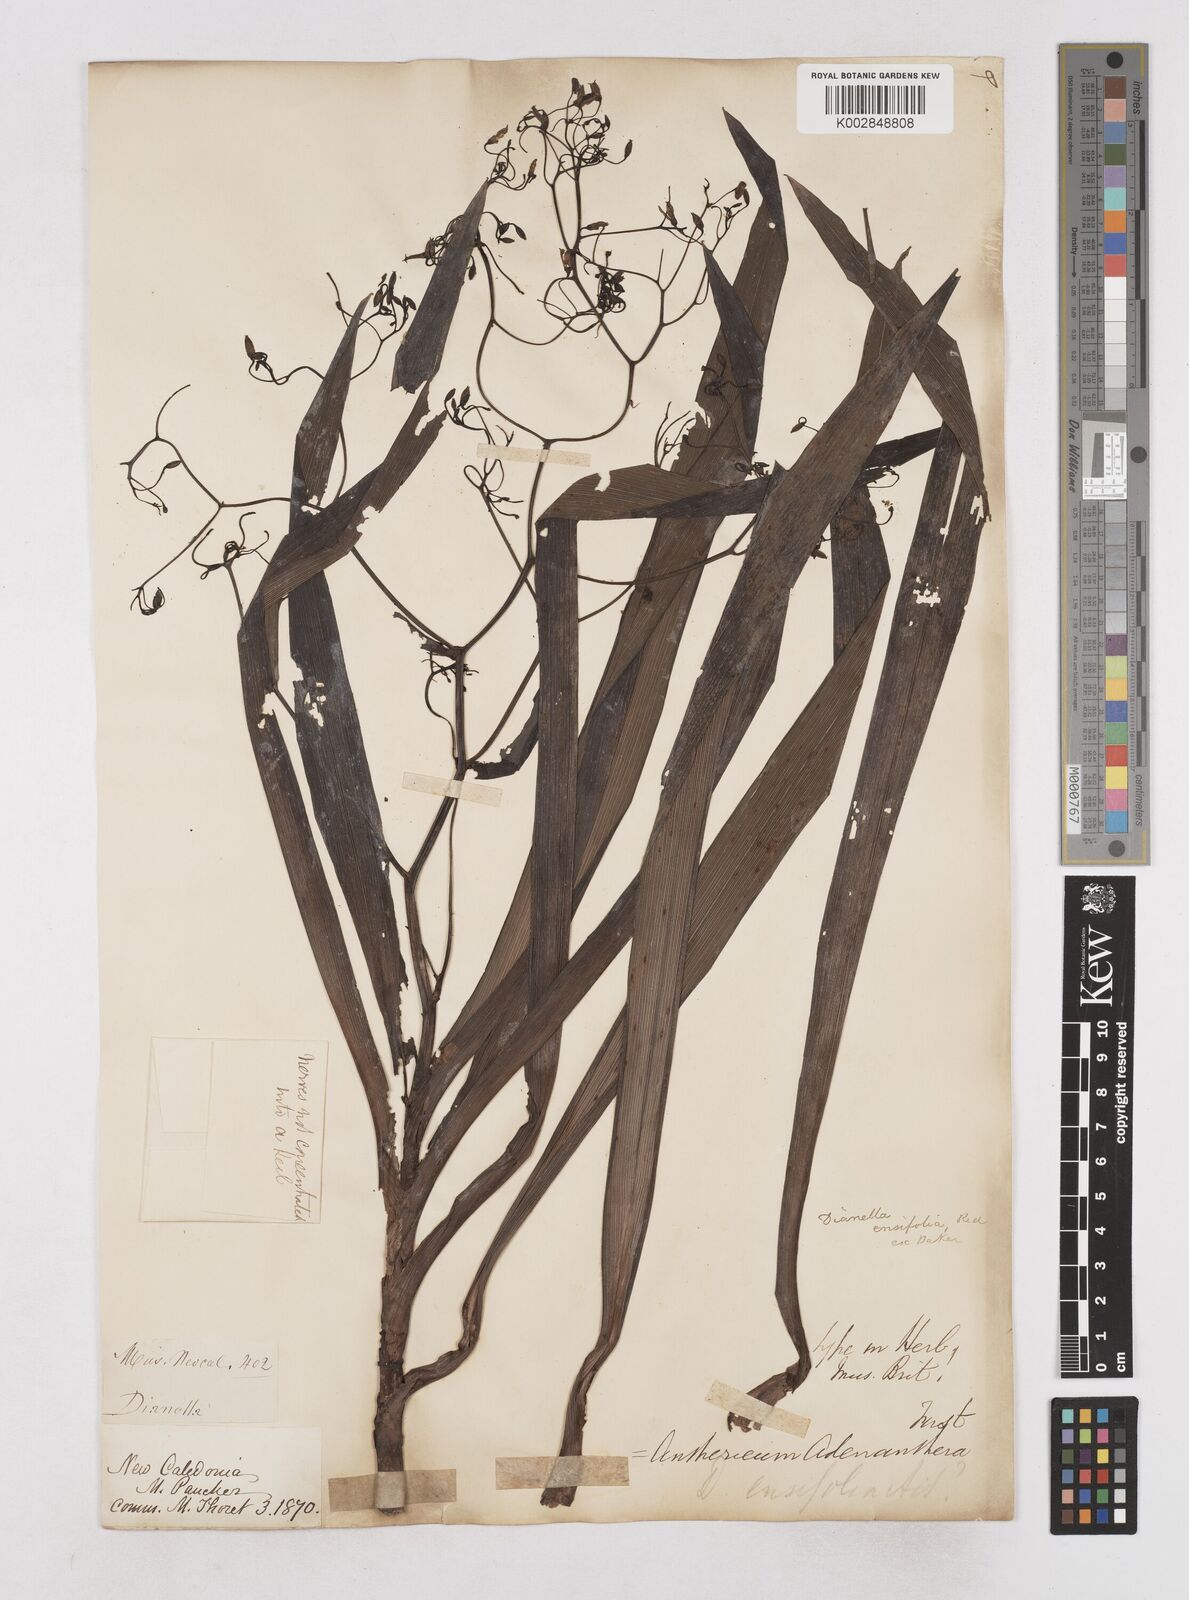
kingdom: Plantae
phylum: Tracheophyta
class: Liliopsida
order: Asparagales
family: Asphodelaceae
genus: Rhuacophila
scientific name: Rhuacophila javanica
